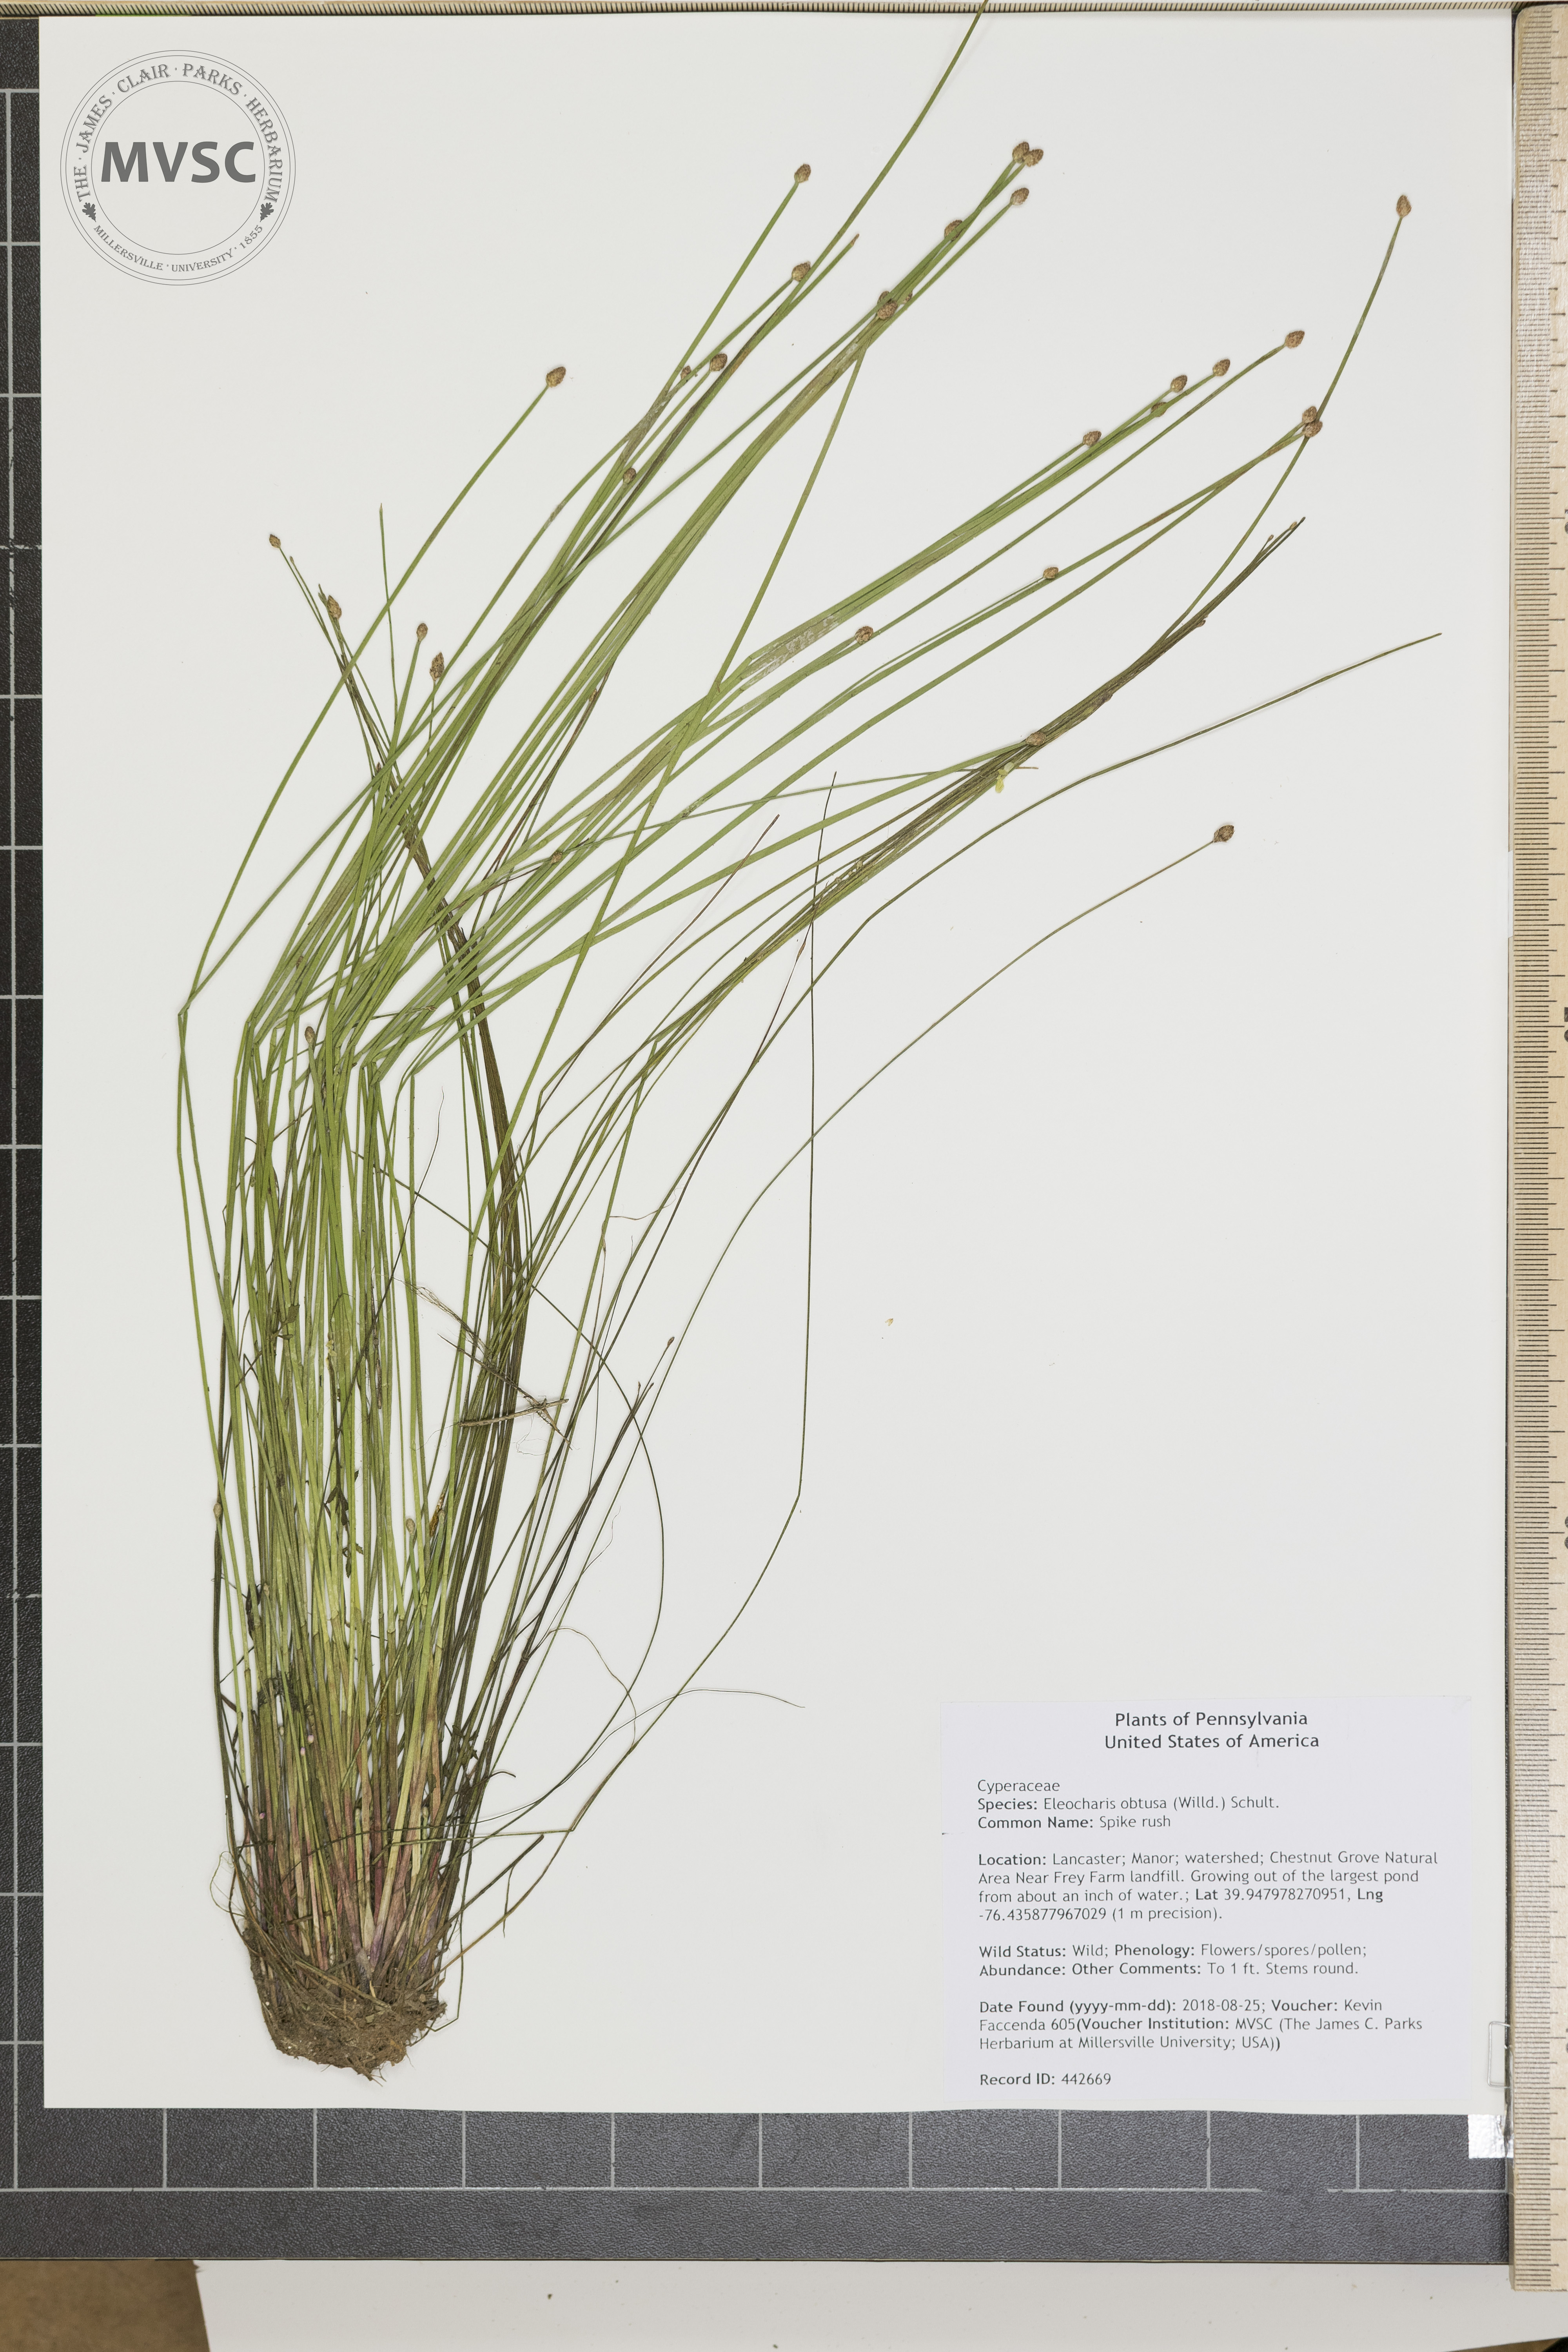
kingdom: Plantae
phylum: Tracheophyta
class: Liliopsida
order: Poales
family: Cyperaceae
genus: Eleocharis
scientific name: Eleocharis obtusa
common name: Spike rush
